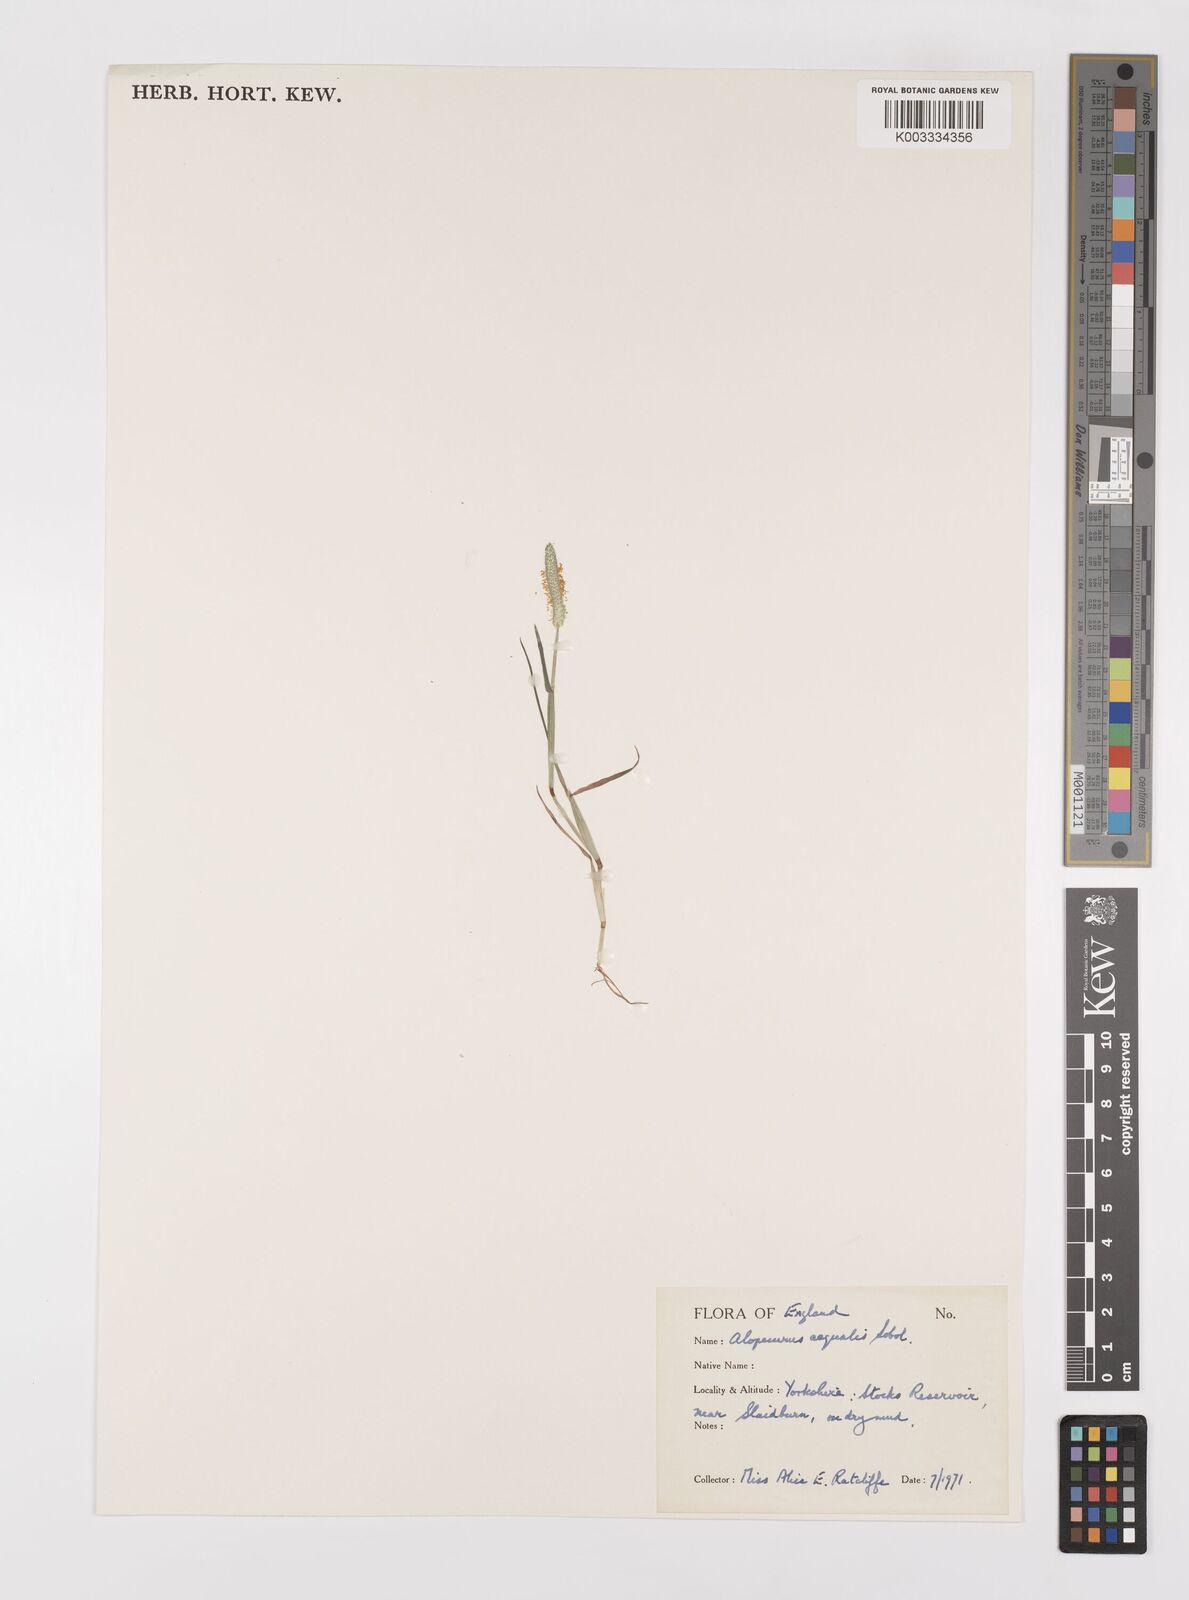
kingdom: Plantae
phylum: Tracheophyta
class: Liliopsida
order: Poales
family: Poaceae
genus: Alopecurus
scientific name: Alopecurus aequalis
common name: Orange foxtail
